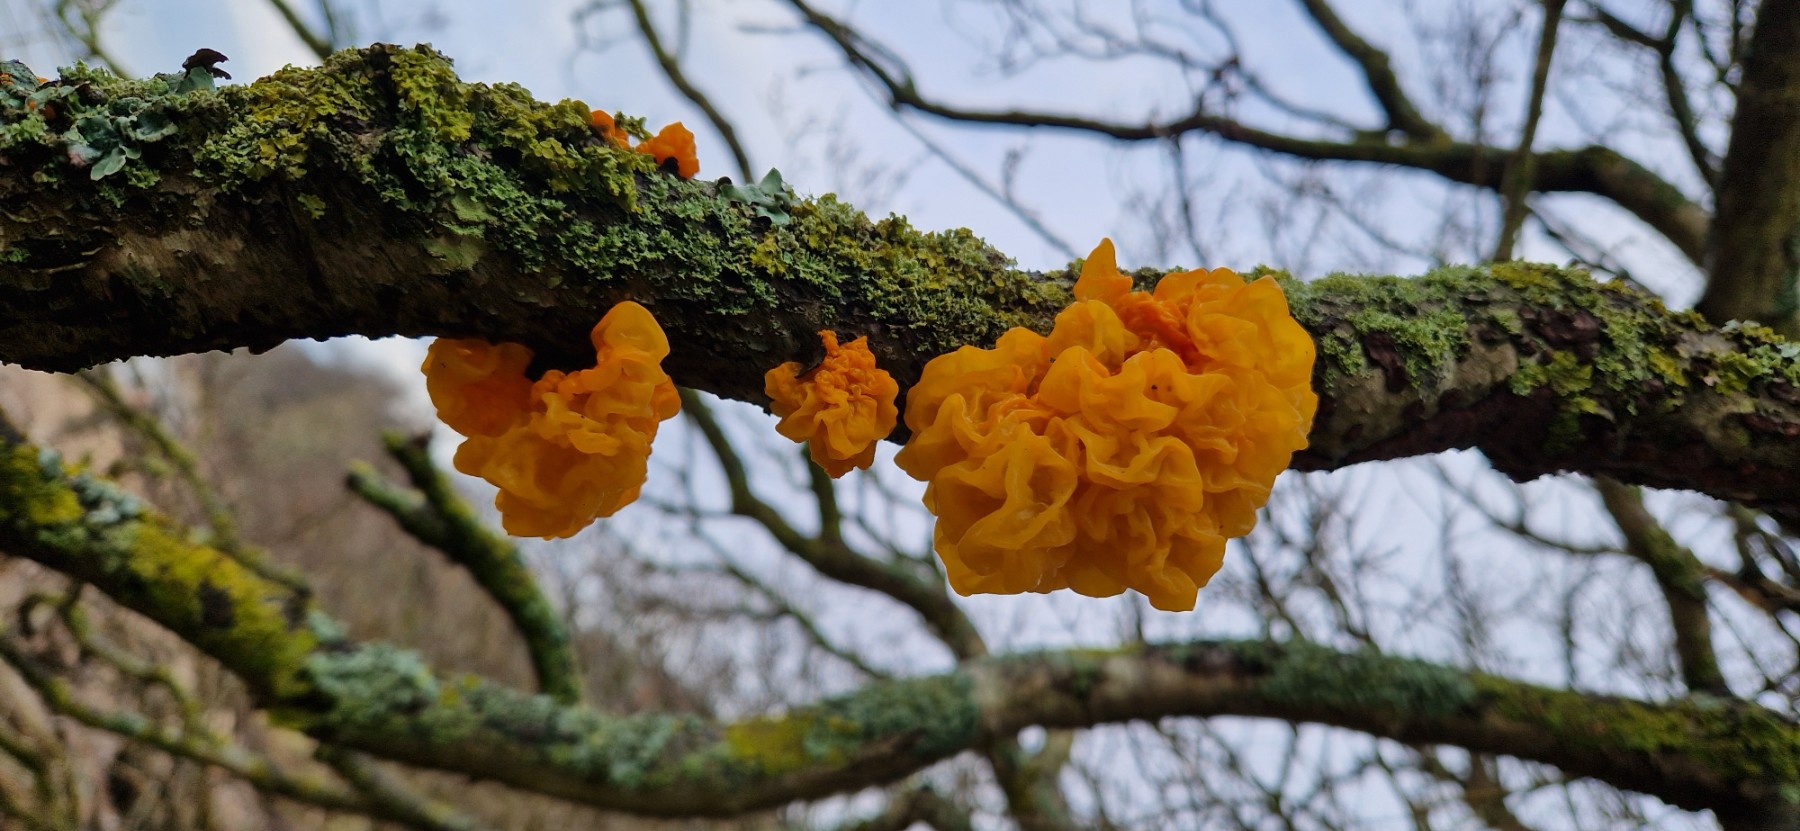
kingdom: Fungi
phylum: Basidiomycota
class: Tremellomycetes
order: Tremellales
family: Tremellaceae
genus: Tremella
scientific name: Tremella mesenterica
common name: gul bævresvamp
